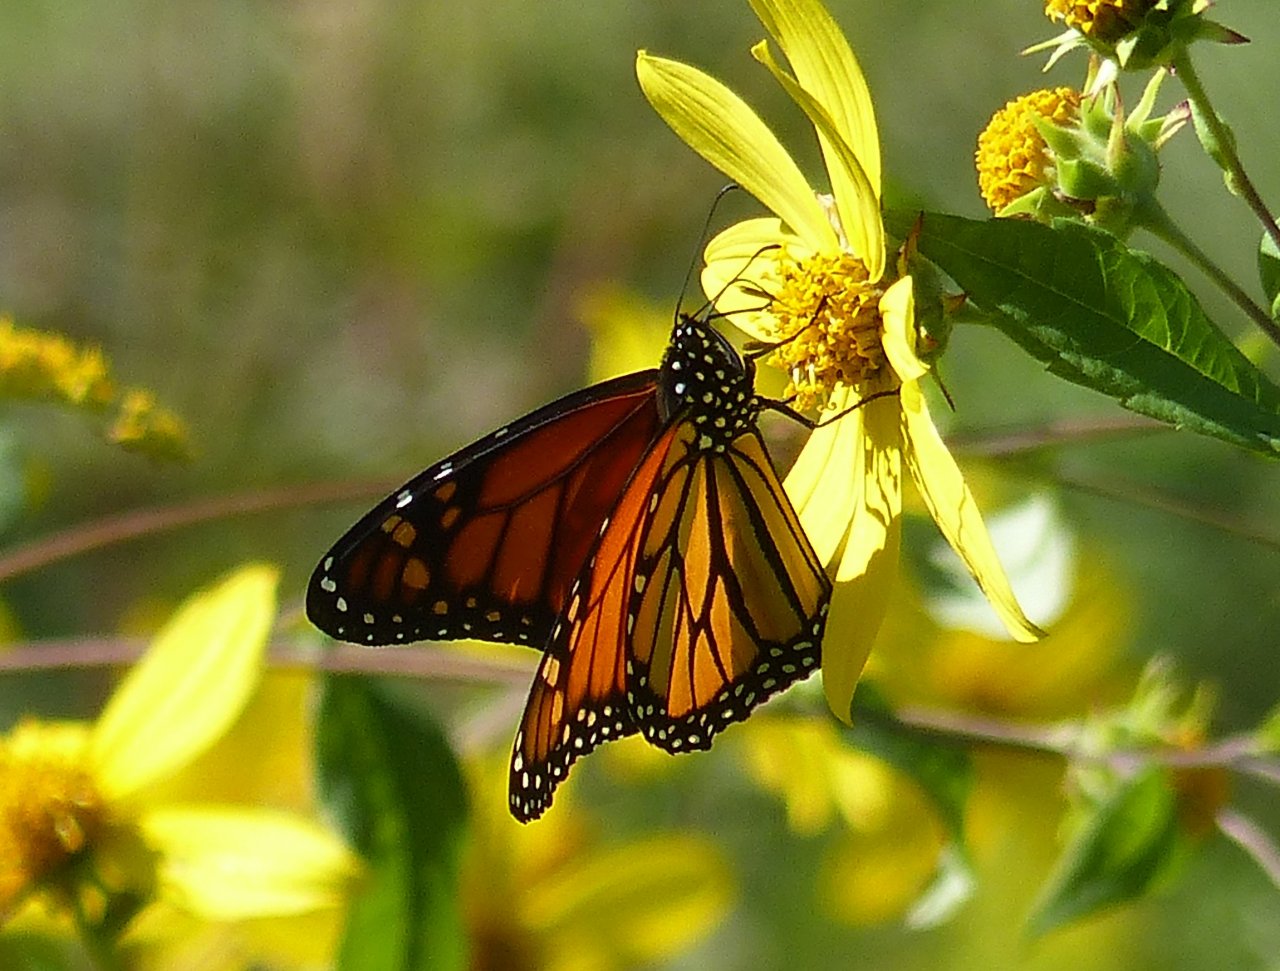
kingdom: Animalia
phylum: Arthropoda
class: Insecta
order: Lepidoptera
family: Nymphalidae
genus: Danaus
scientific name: Danaus plexippus
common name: Monarch
